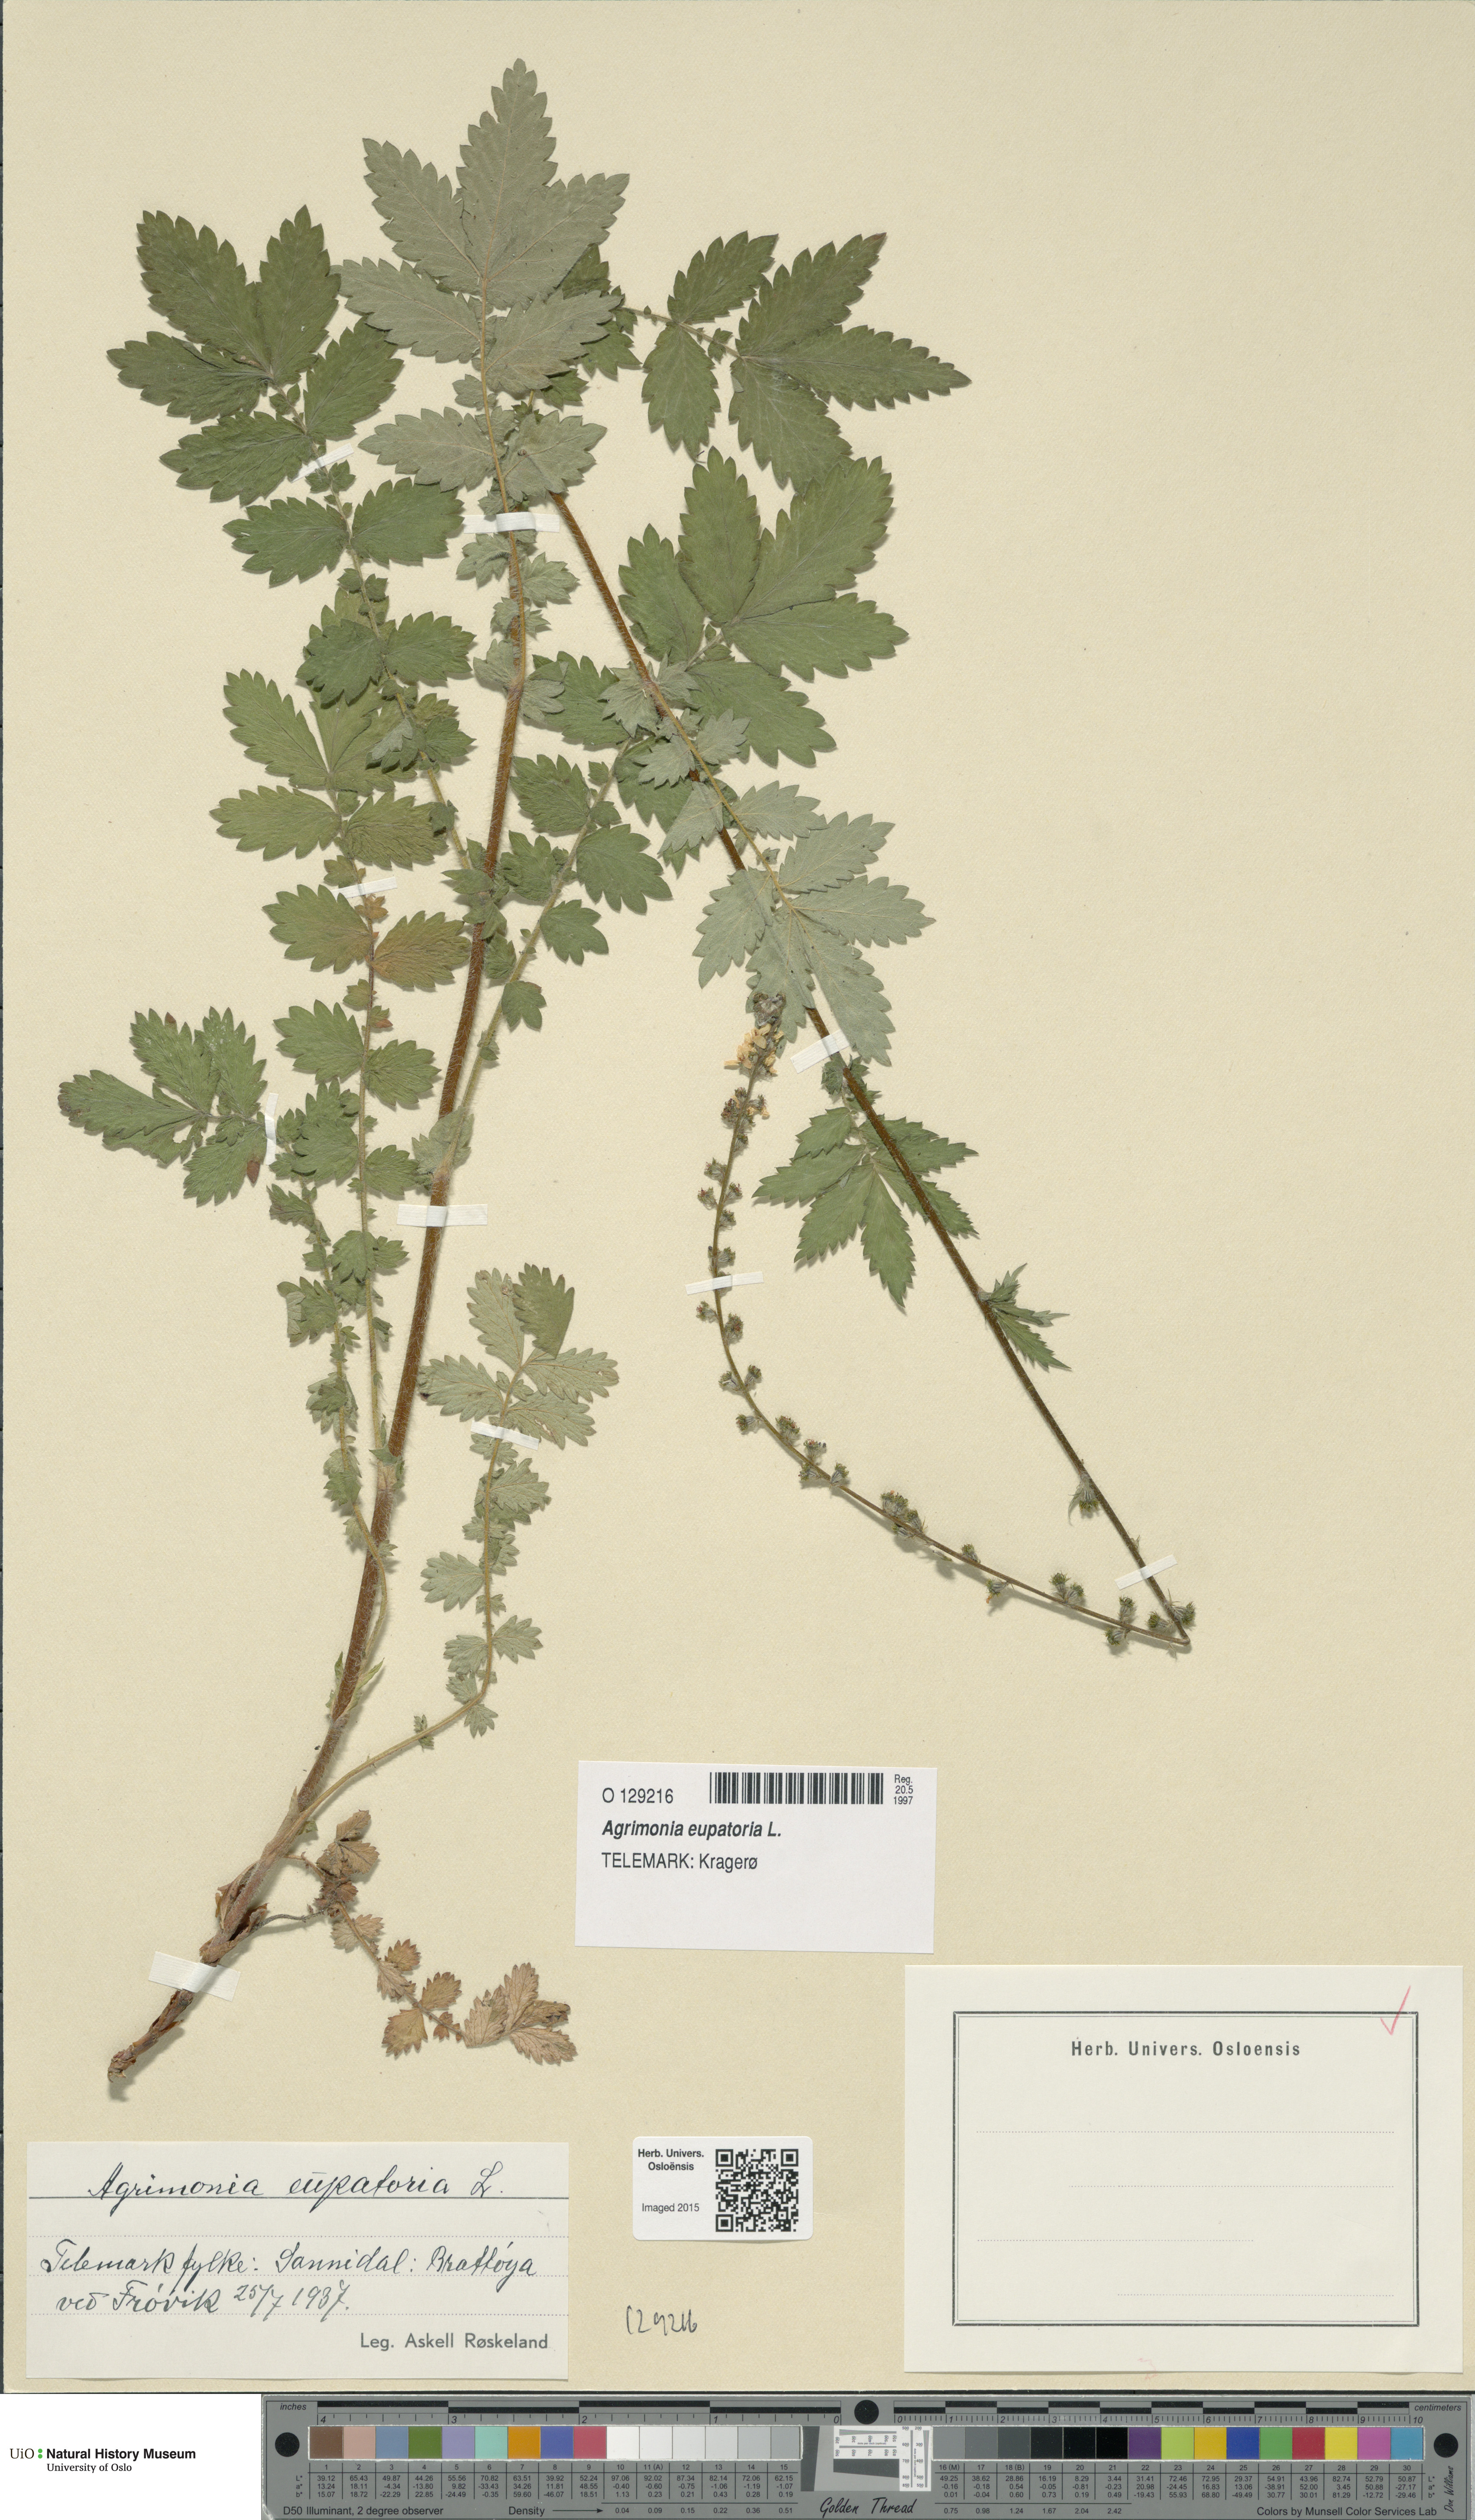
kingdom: Plantae
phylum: Tracheophyta
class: Magnoliopsida
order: Rosales
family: Rosaceae
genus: Agrimonia
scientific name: Agrimonia eupatoria
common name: Agrimony
